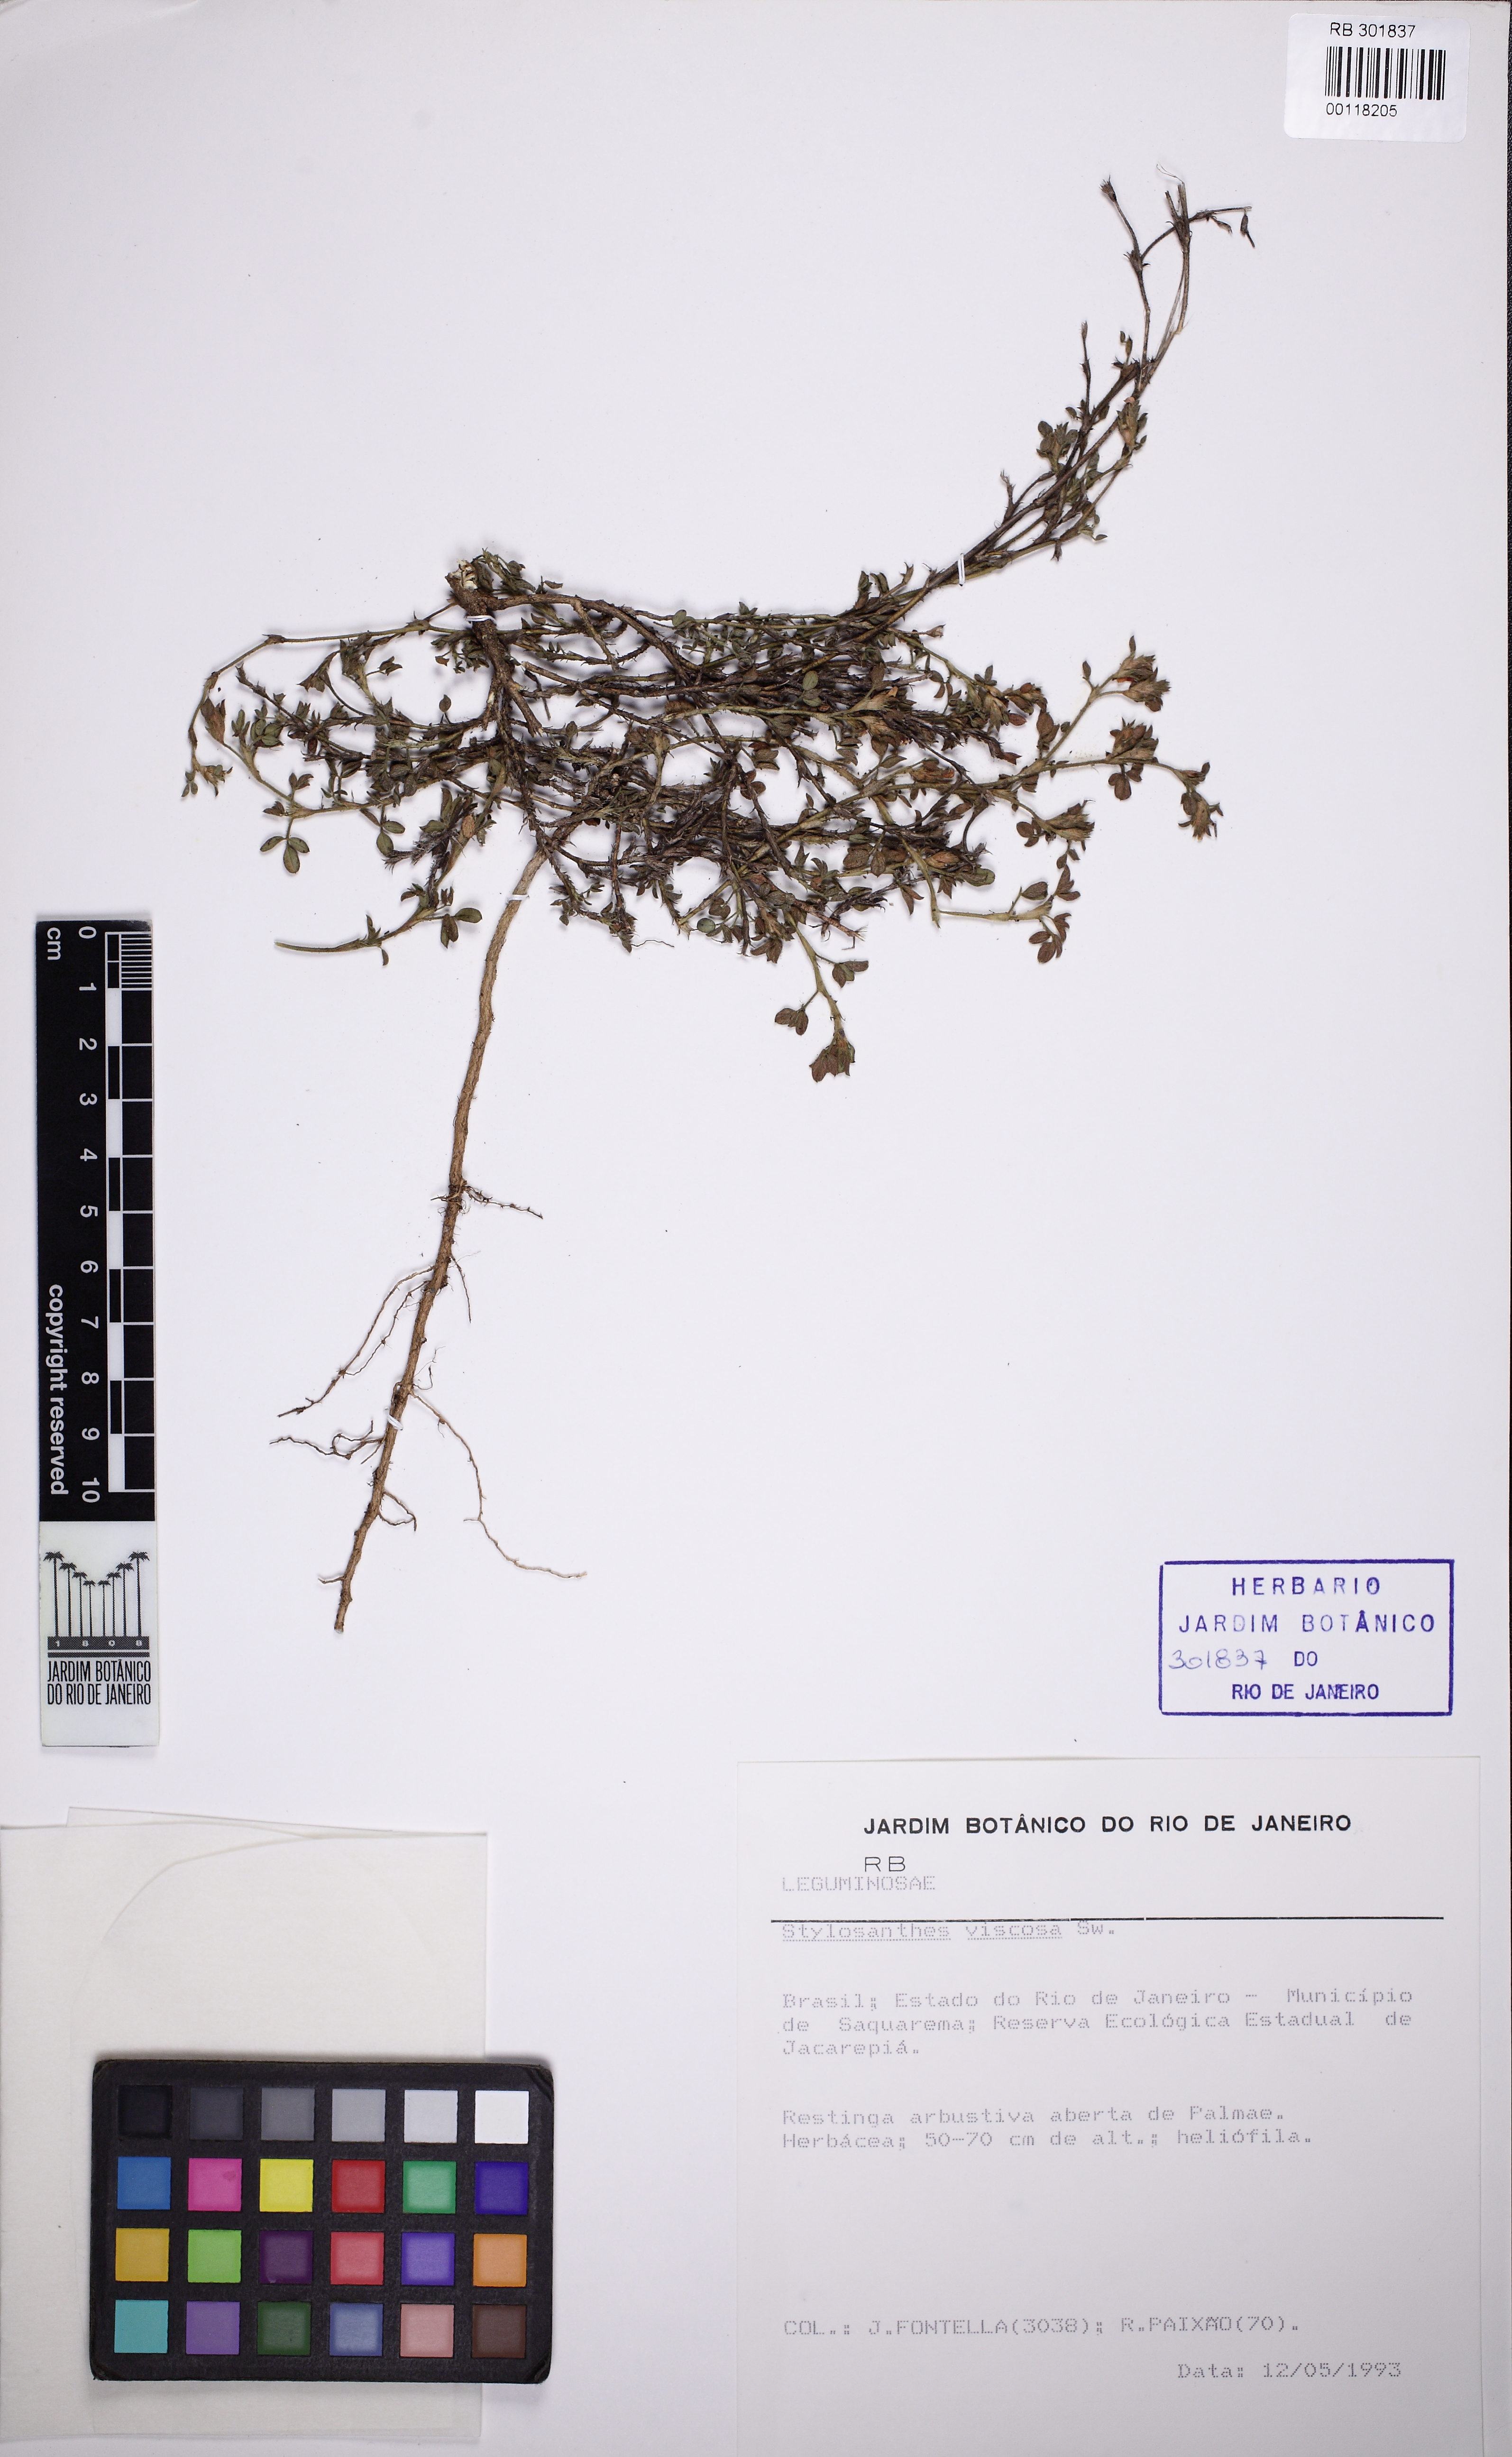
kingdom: Plantae
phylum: Tracheophyta
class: Magnoliopsida
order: Fabales
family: Fabaceae
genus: Stylosanthes
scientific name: Stylosanthes viscosa
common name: Viscid pencil-flower
